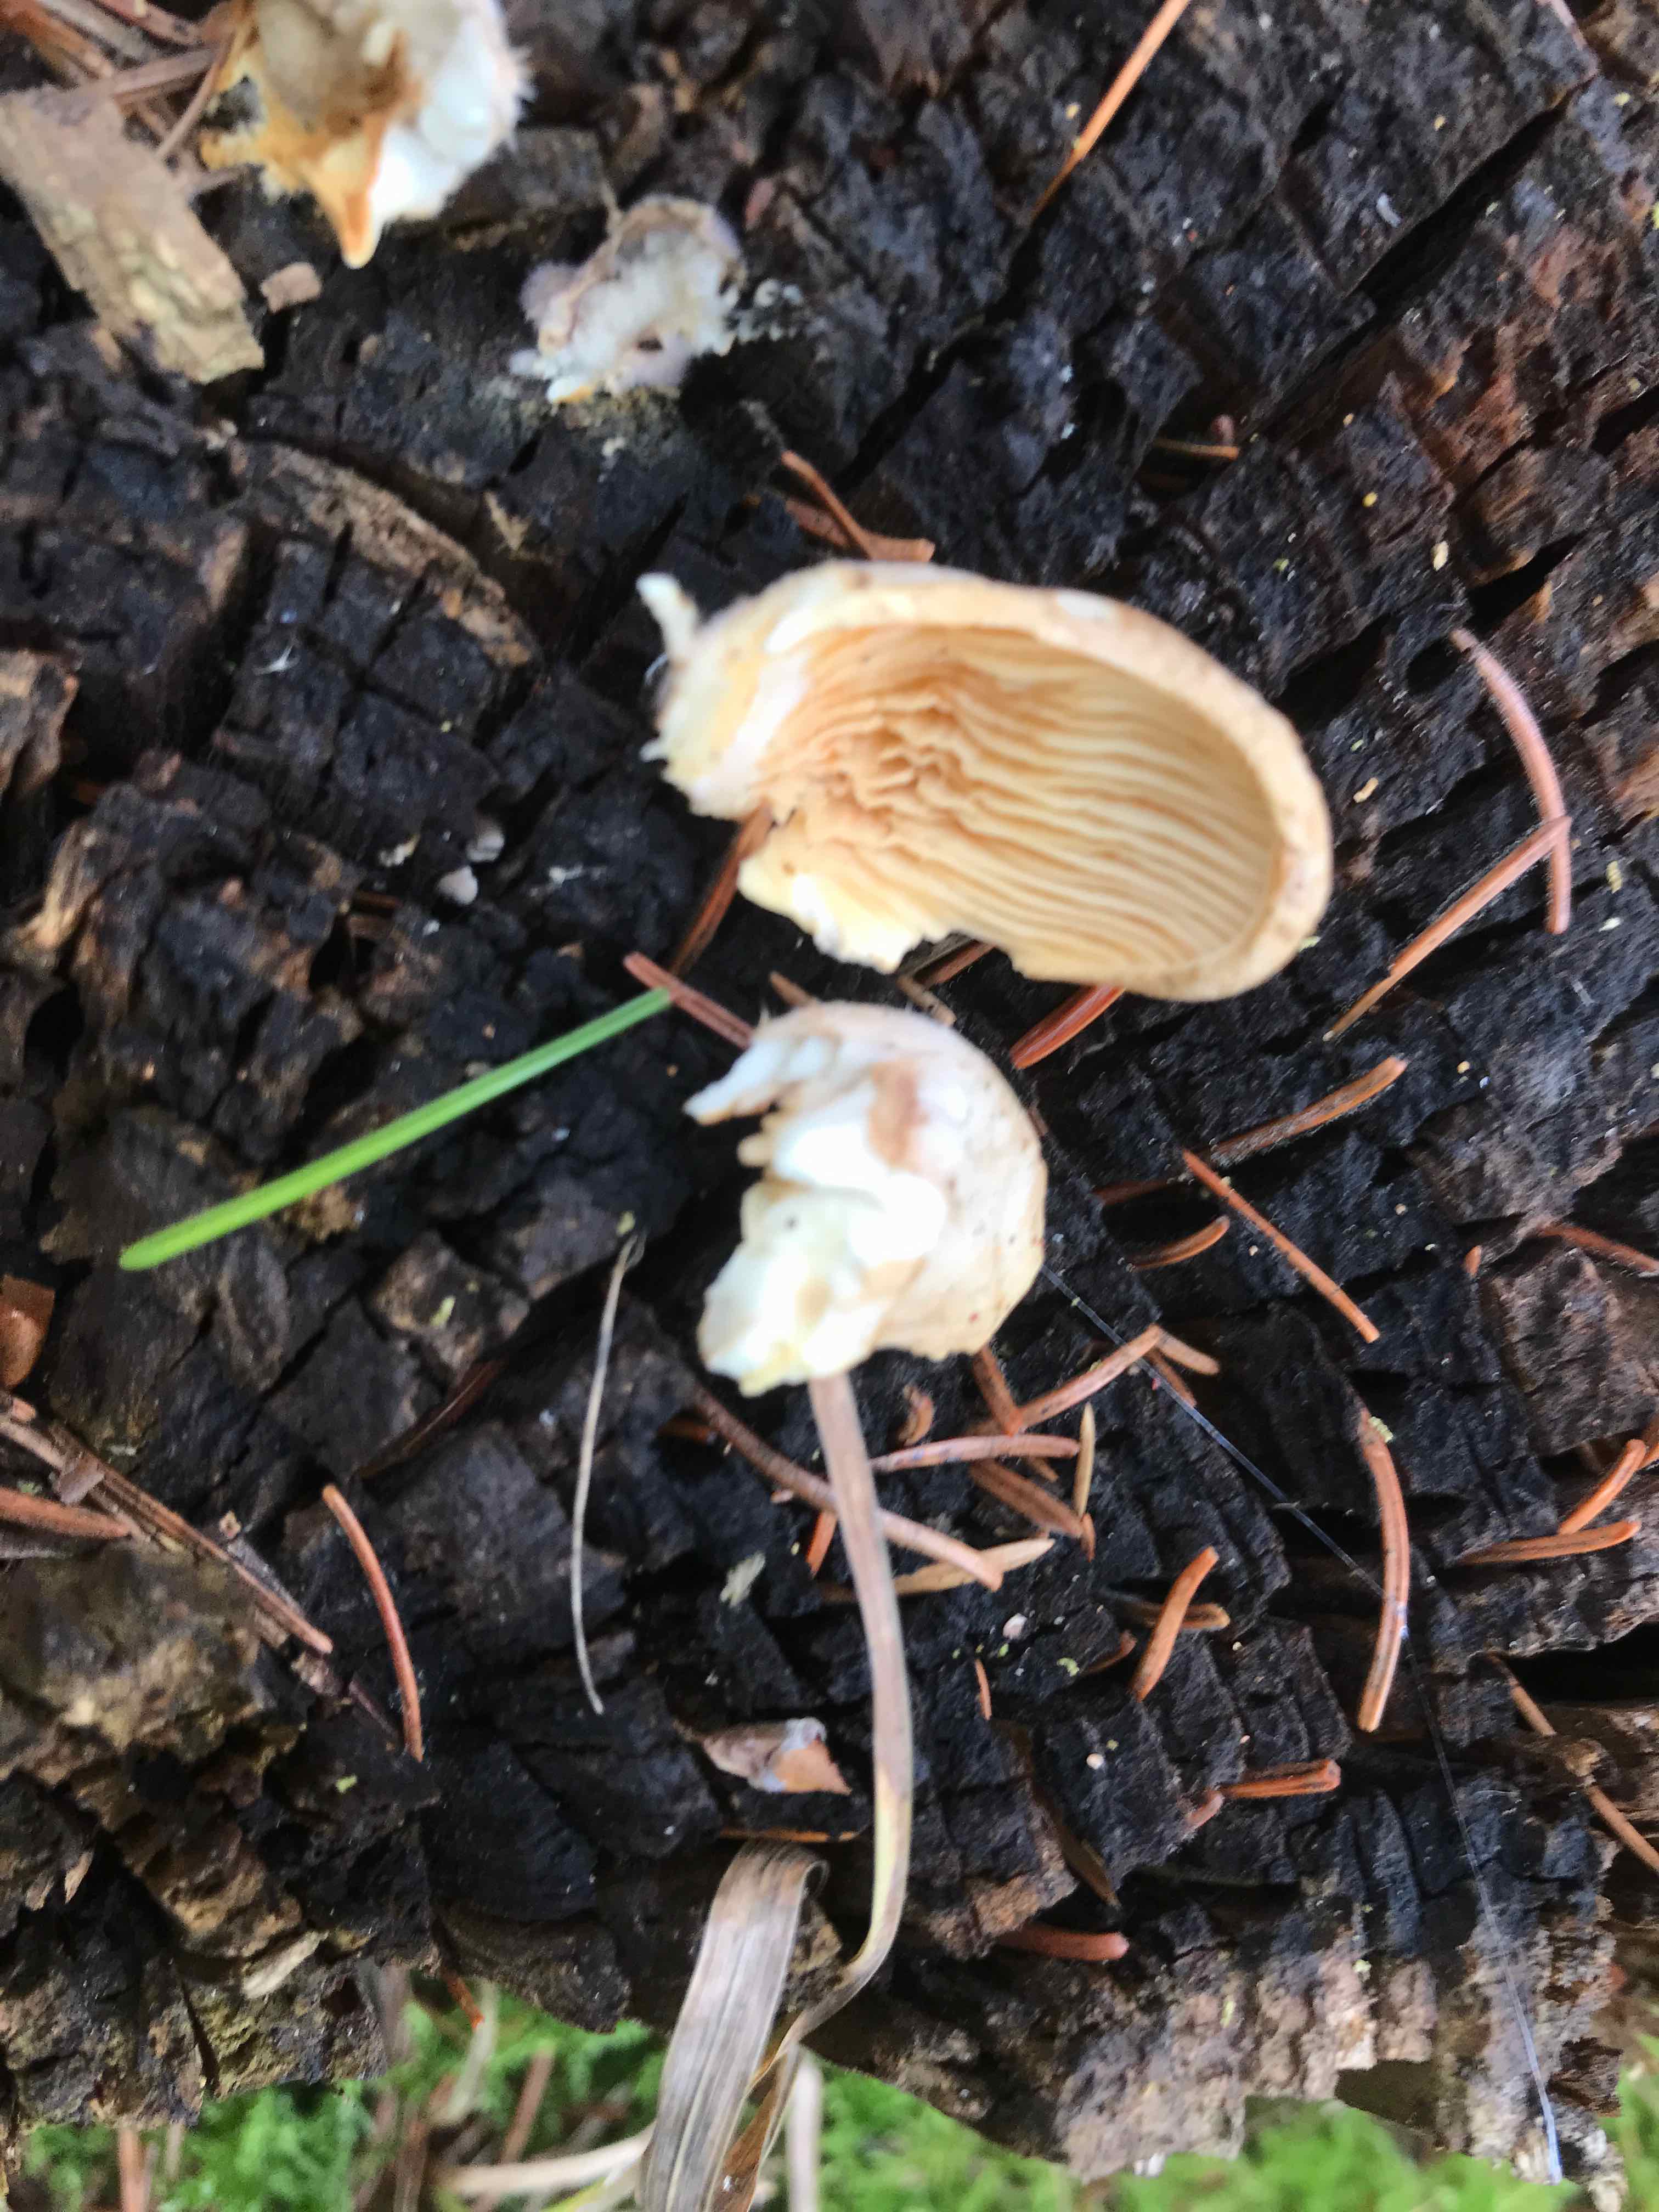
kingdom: Fungi
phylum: Basidiomycota
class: Agaricomycetes
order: Boletales
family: Tapinellaceae
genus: Tapinella
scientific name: Tapinella panuoides
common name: tømmer-viftesvamp
